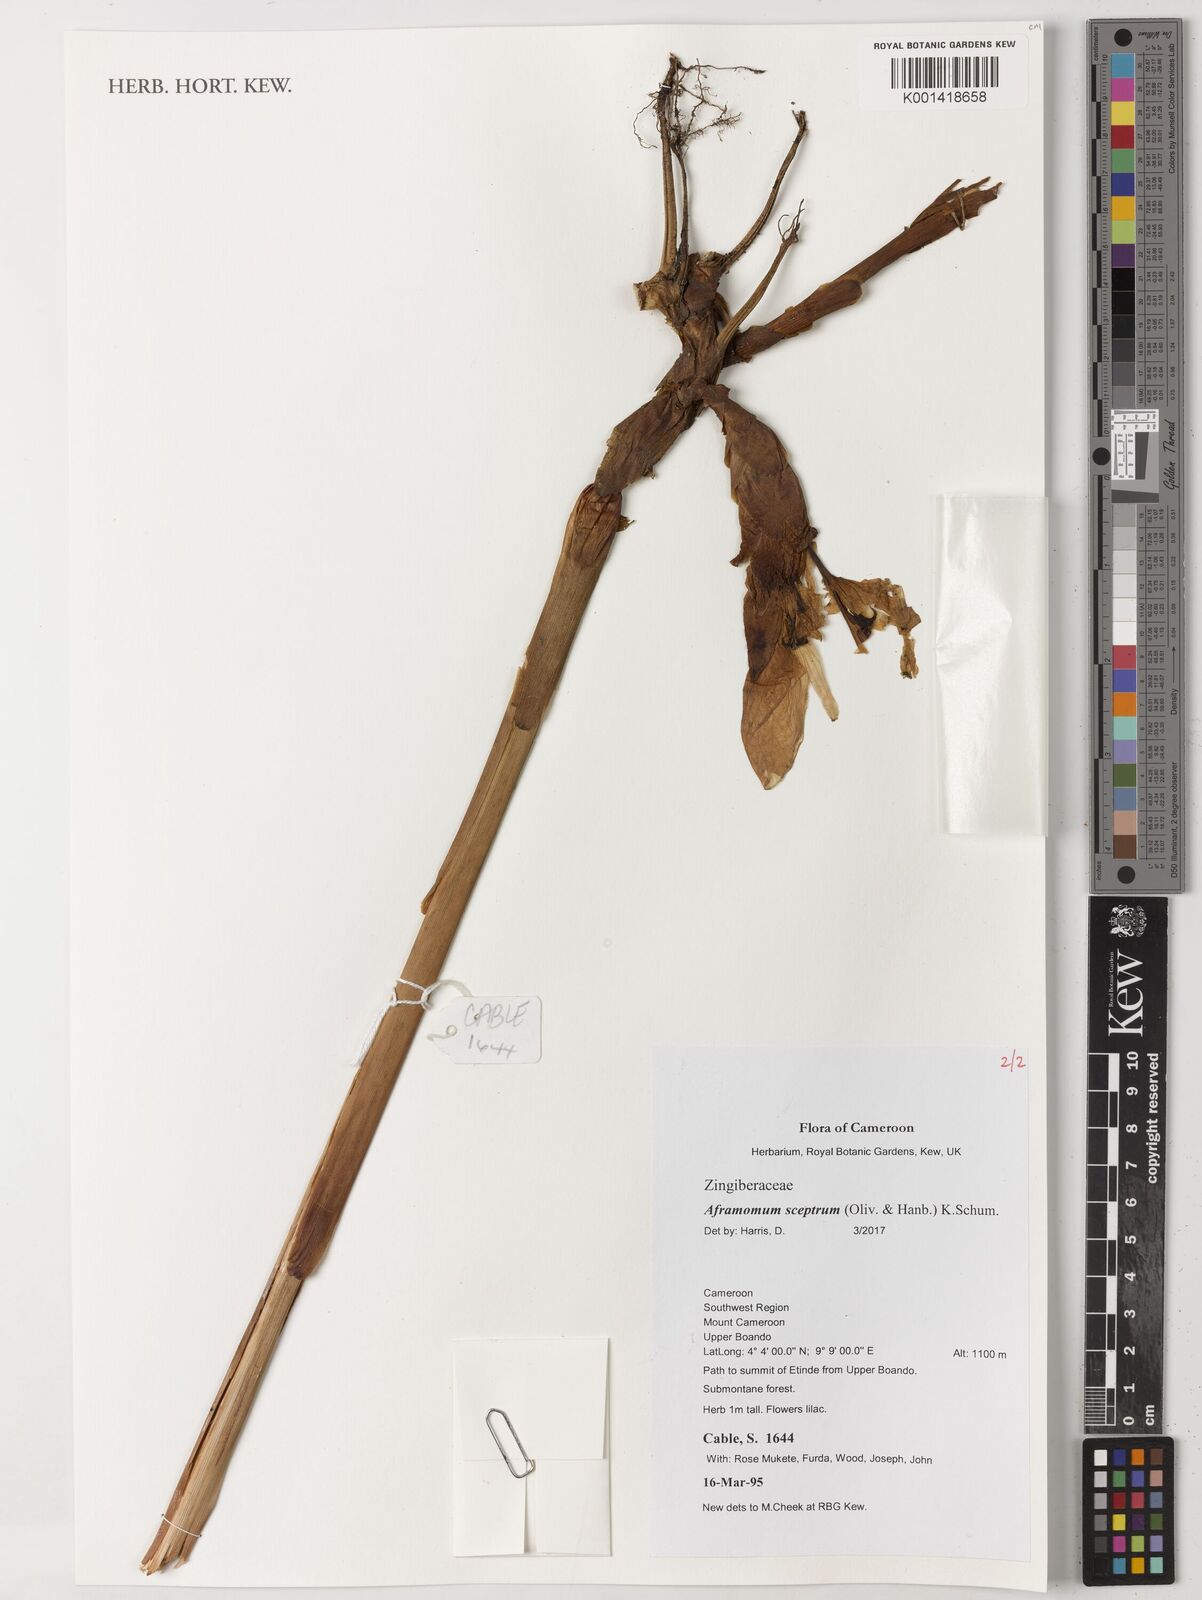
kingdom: Plantae
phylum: Tracheophyta
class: Liliopsida
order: Zingiberales
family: Zingiberaceae
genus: Aframomum
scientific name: Aframomum cereum
